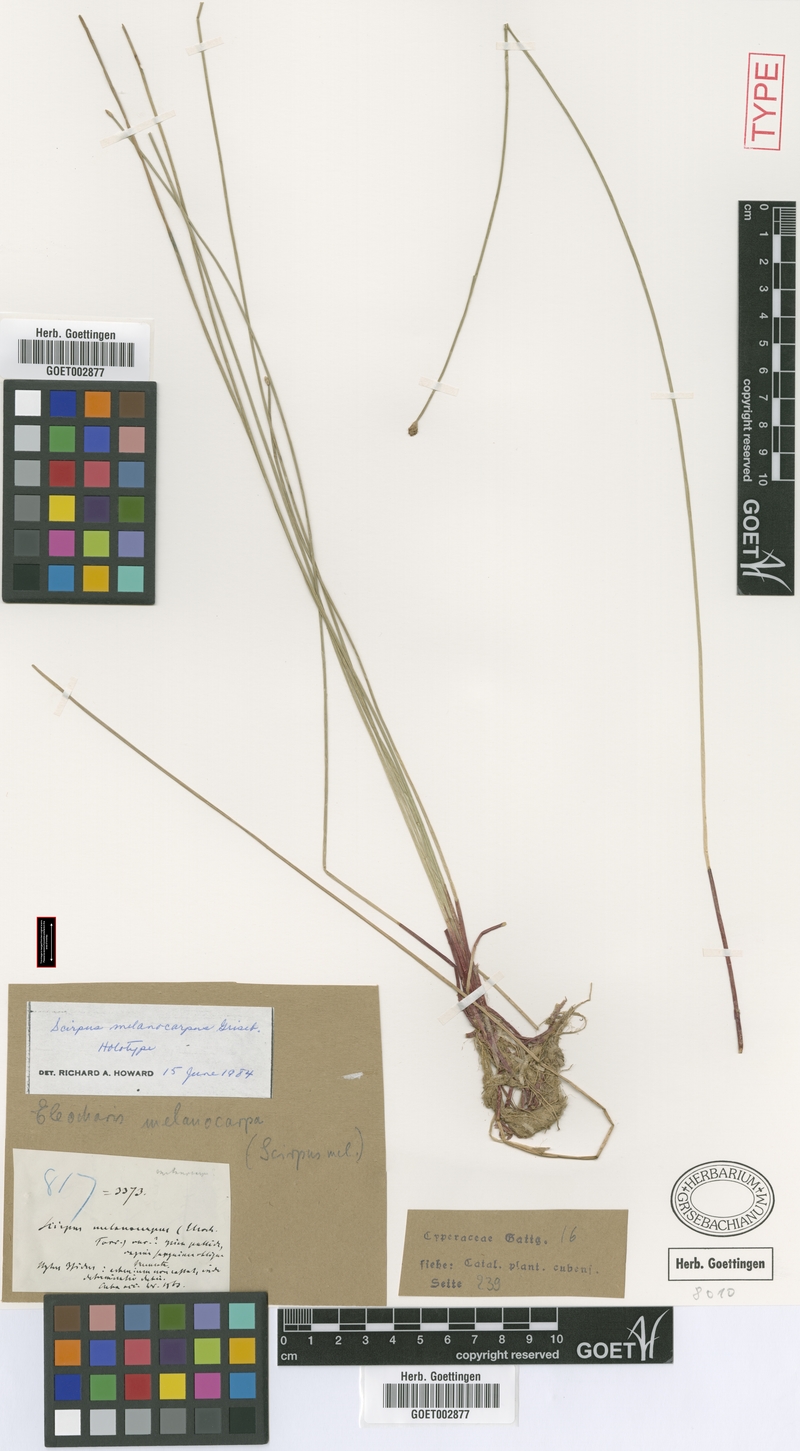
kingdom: Plantae
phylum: Tracheophyta
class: Liliopsida
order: Poales
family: Cyperaceae
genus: Eleocharis
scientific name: Eleocharis melanocarpa
